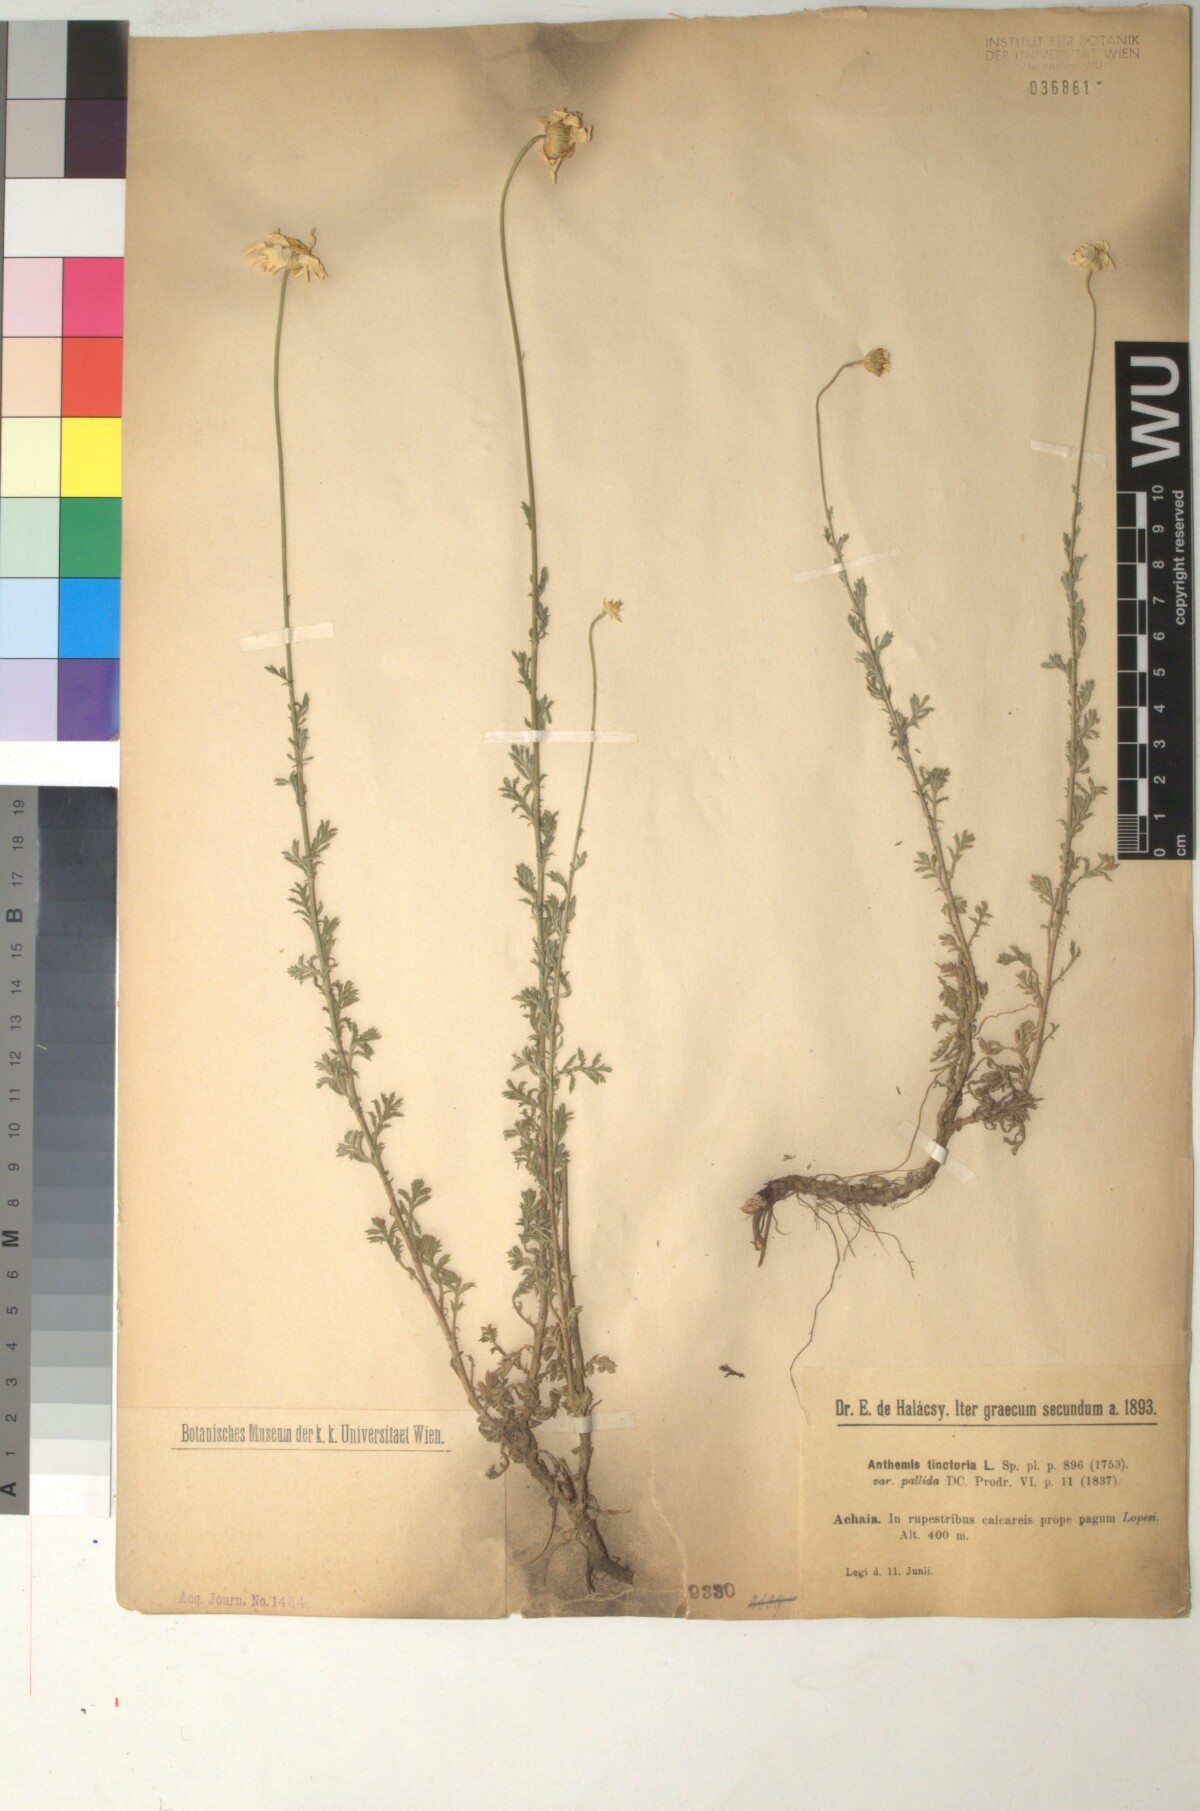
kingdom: Plantae
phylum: Tracheophyta
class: Magnoliopsida
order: Asterales
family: Asteraceae
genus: Cota
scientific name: Cota tinctoria
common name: Golden chamomile
